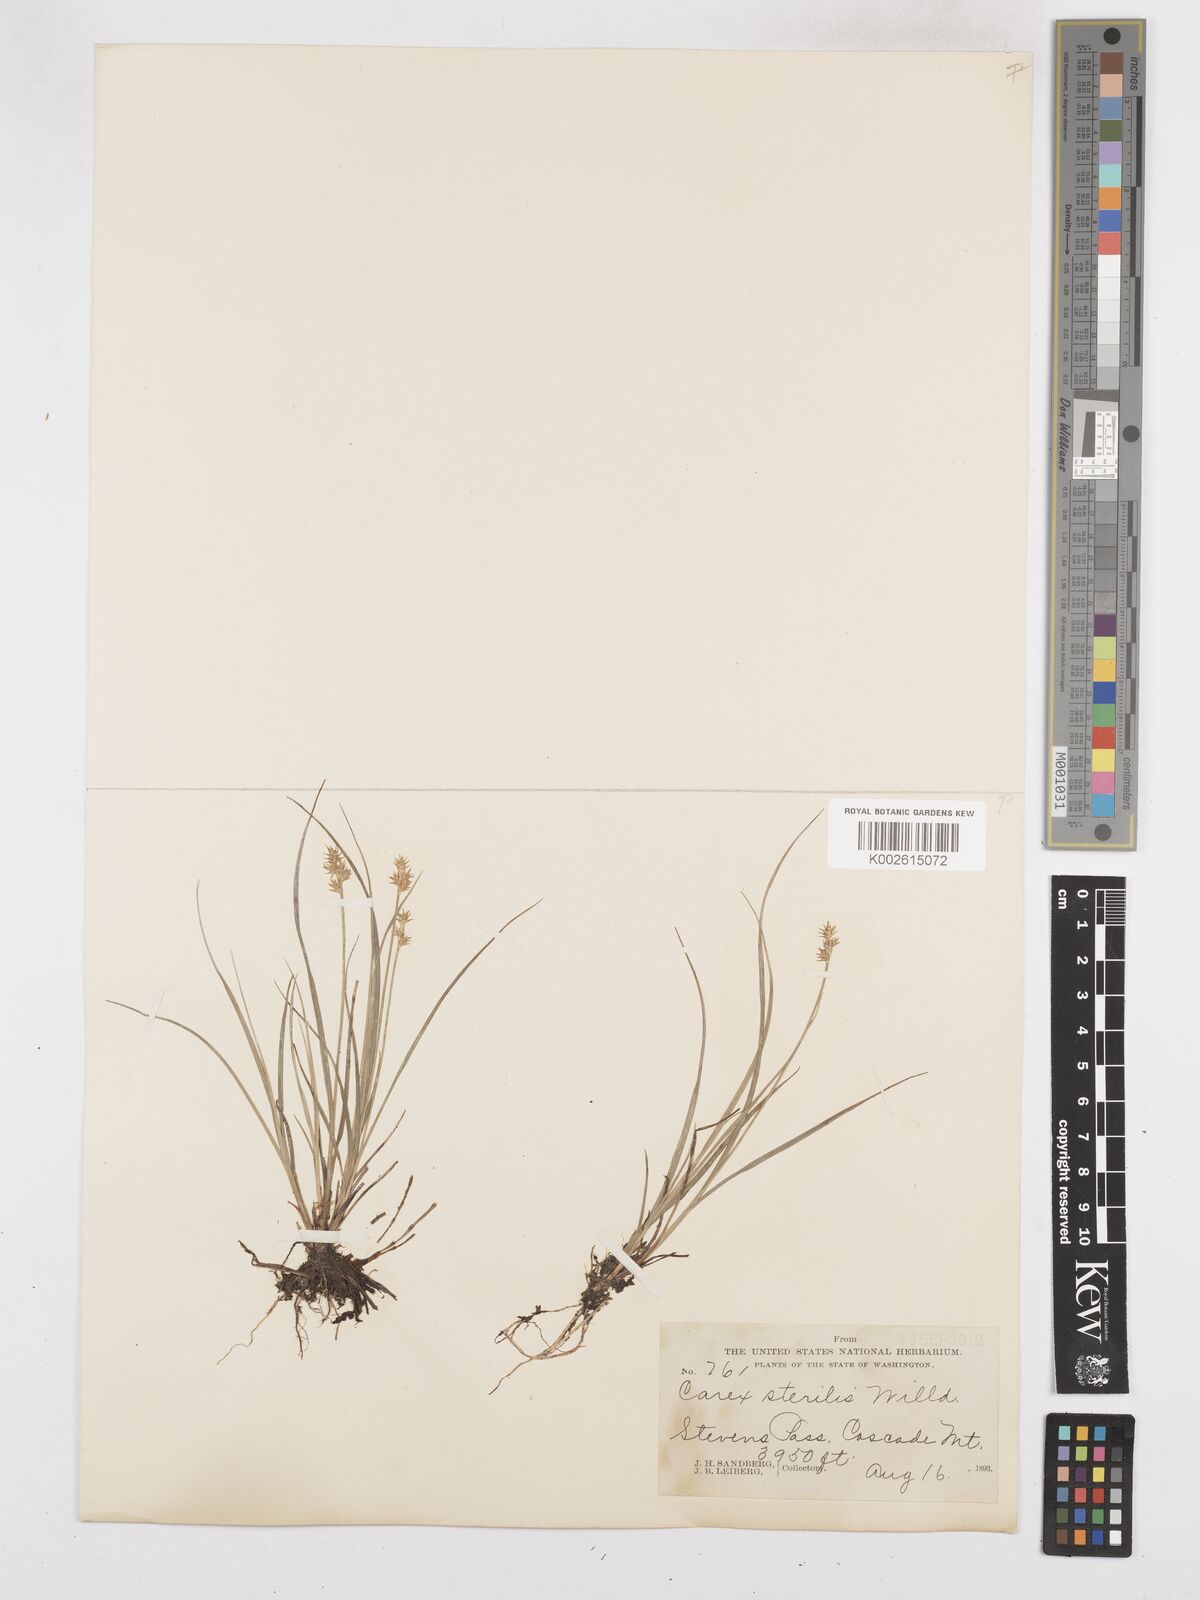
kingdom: Plantae
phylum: Tracheophyta
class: Liliopsida
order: Poales
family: Cyperaceae
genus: Carex
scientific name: Carex sterilis
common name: Dioecious sedge
